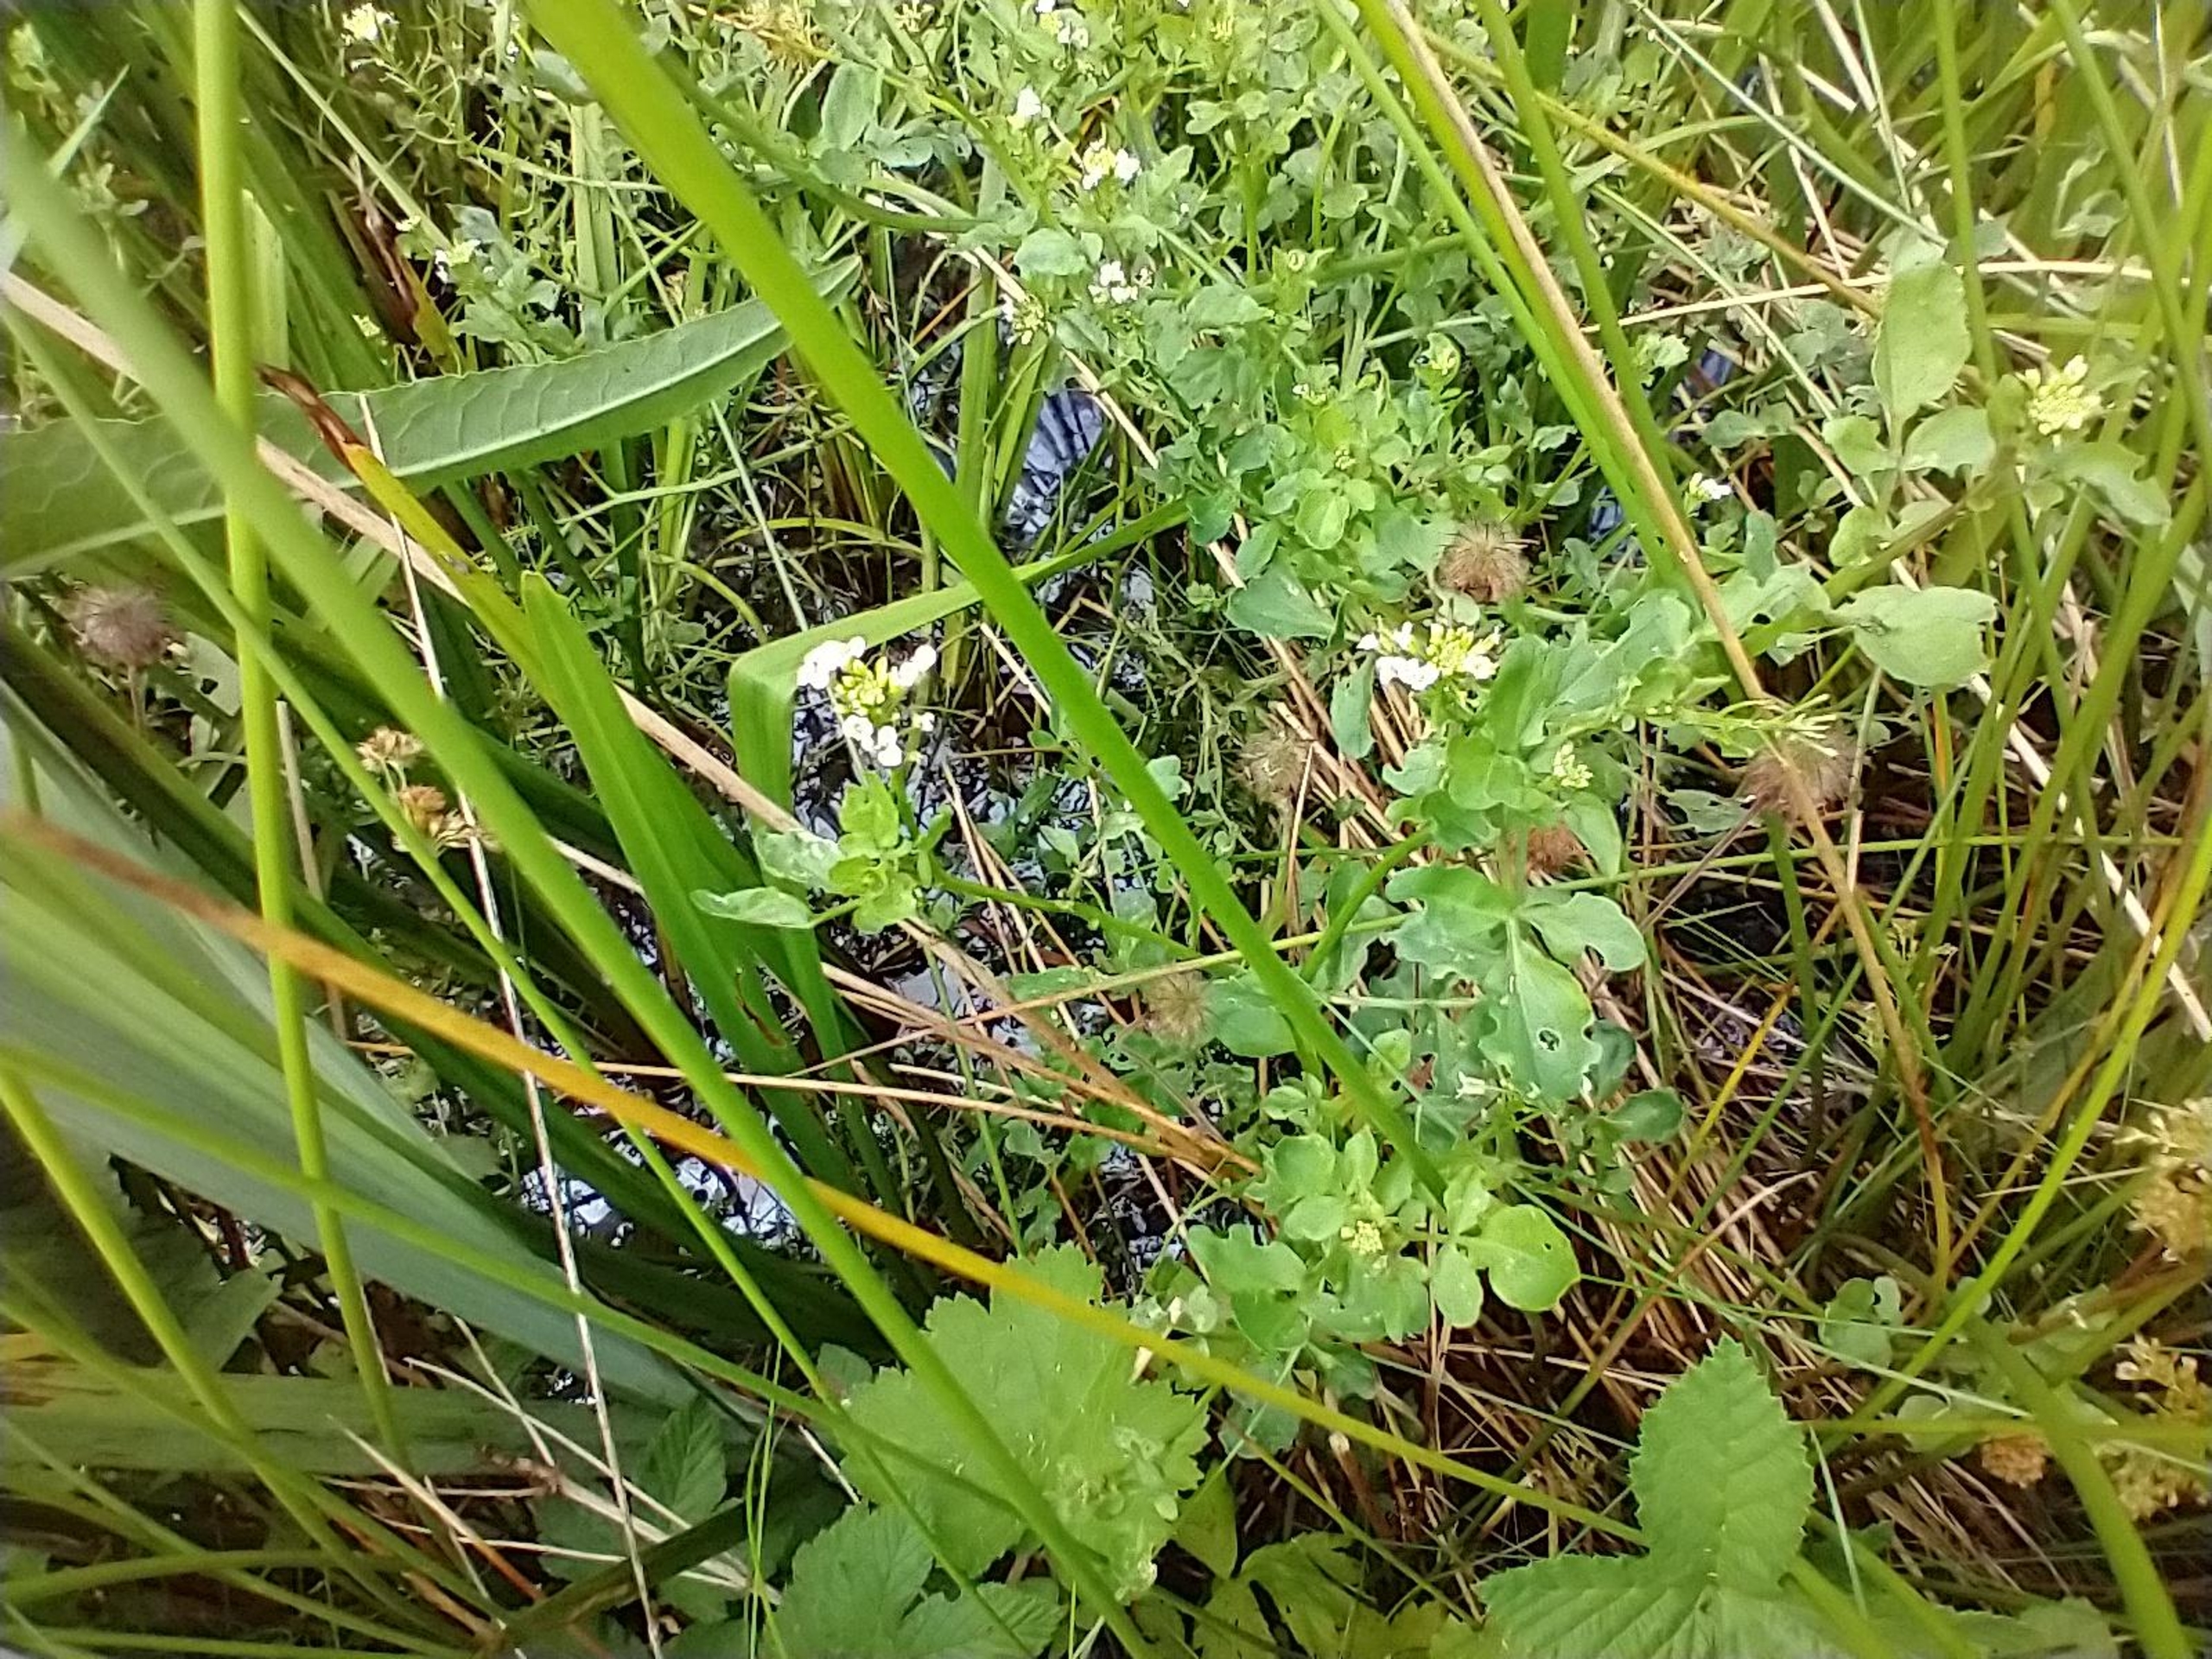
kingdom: Plantae
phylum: Tracheophyta
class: Magnoliopsida
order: Brassicales
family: Brassicaceae
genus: Nasturtium
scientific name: Nasturtium microphyllum
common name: Tyndskulpet brøndkarse
